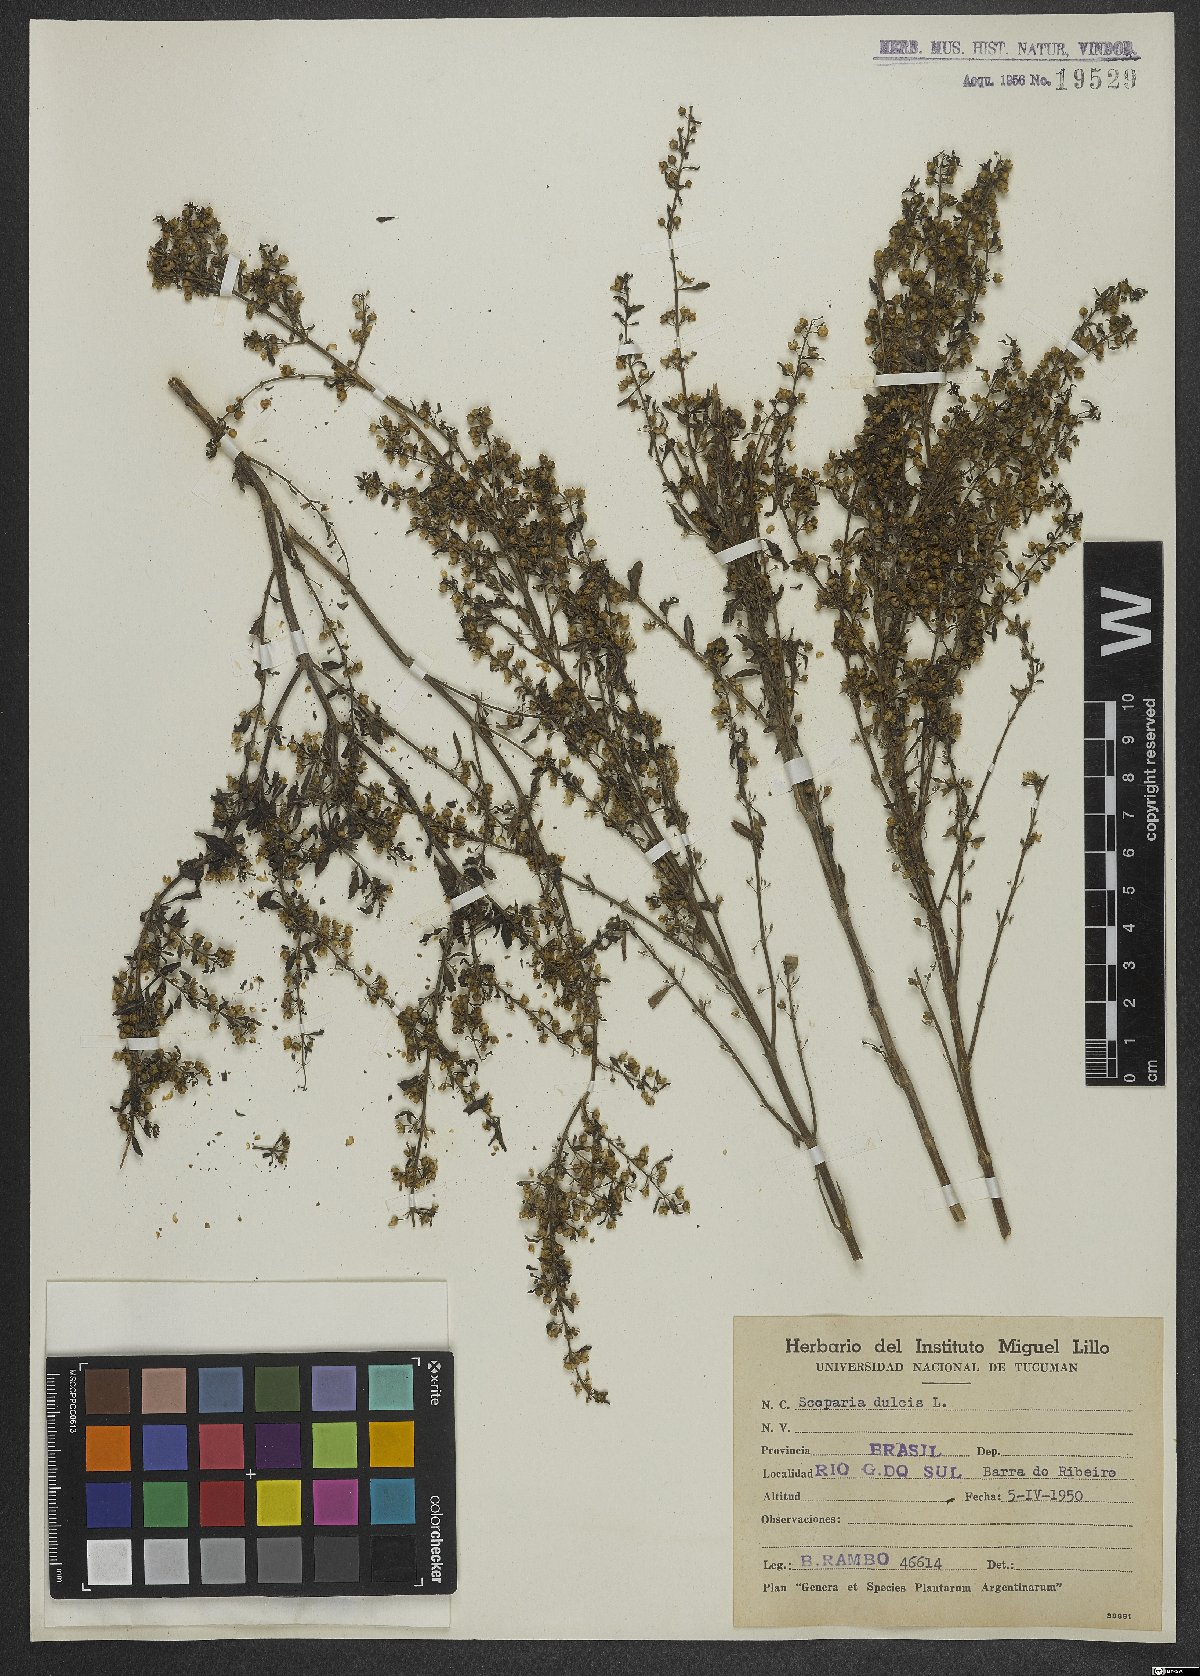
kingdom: Plantae
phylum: Tracheophyta
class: Magnoliopsida
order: Lamiales
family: Plantaginaceae
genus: Scoparia
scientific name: Scoparia dulcis
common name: Scoparia-weed
